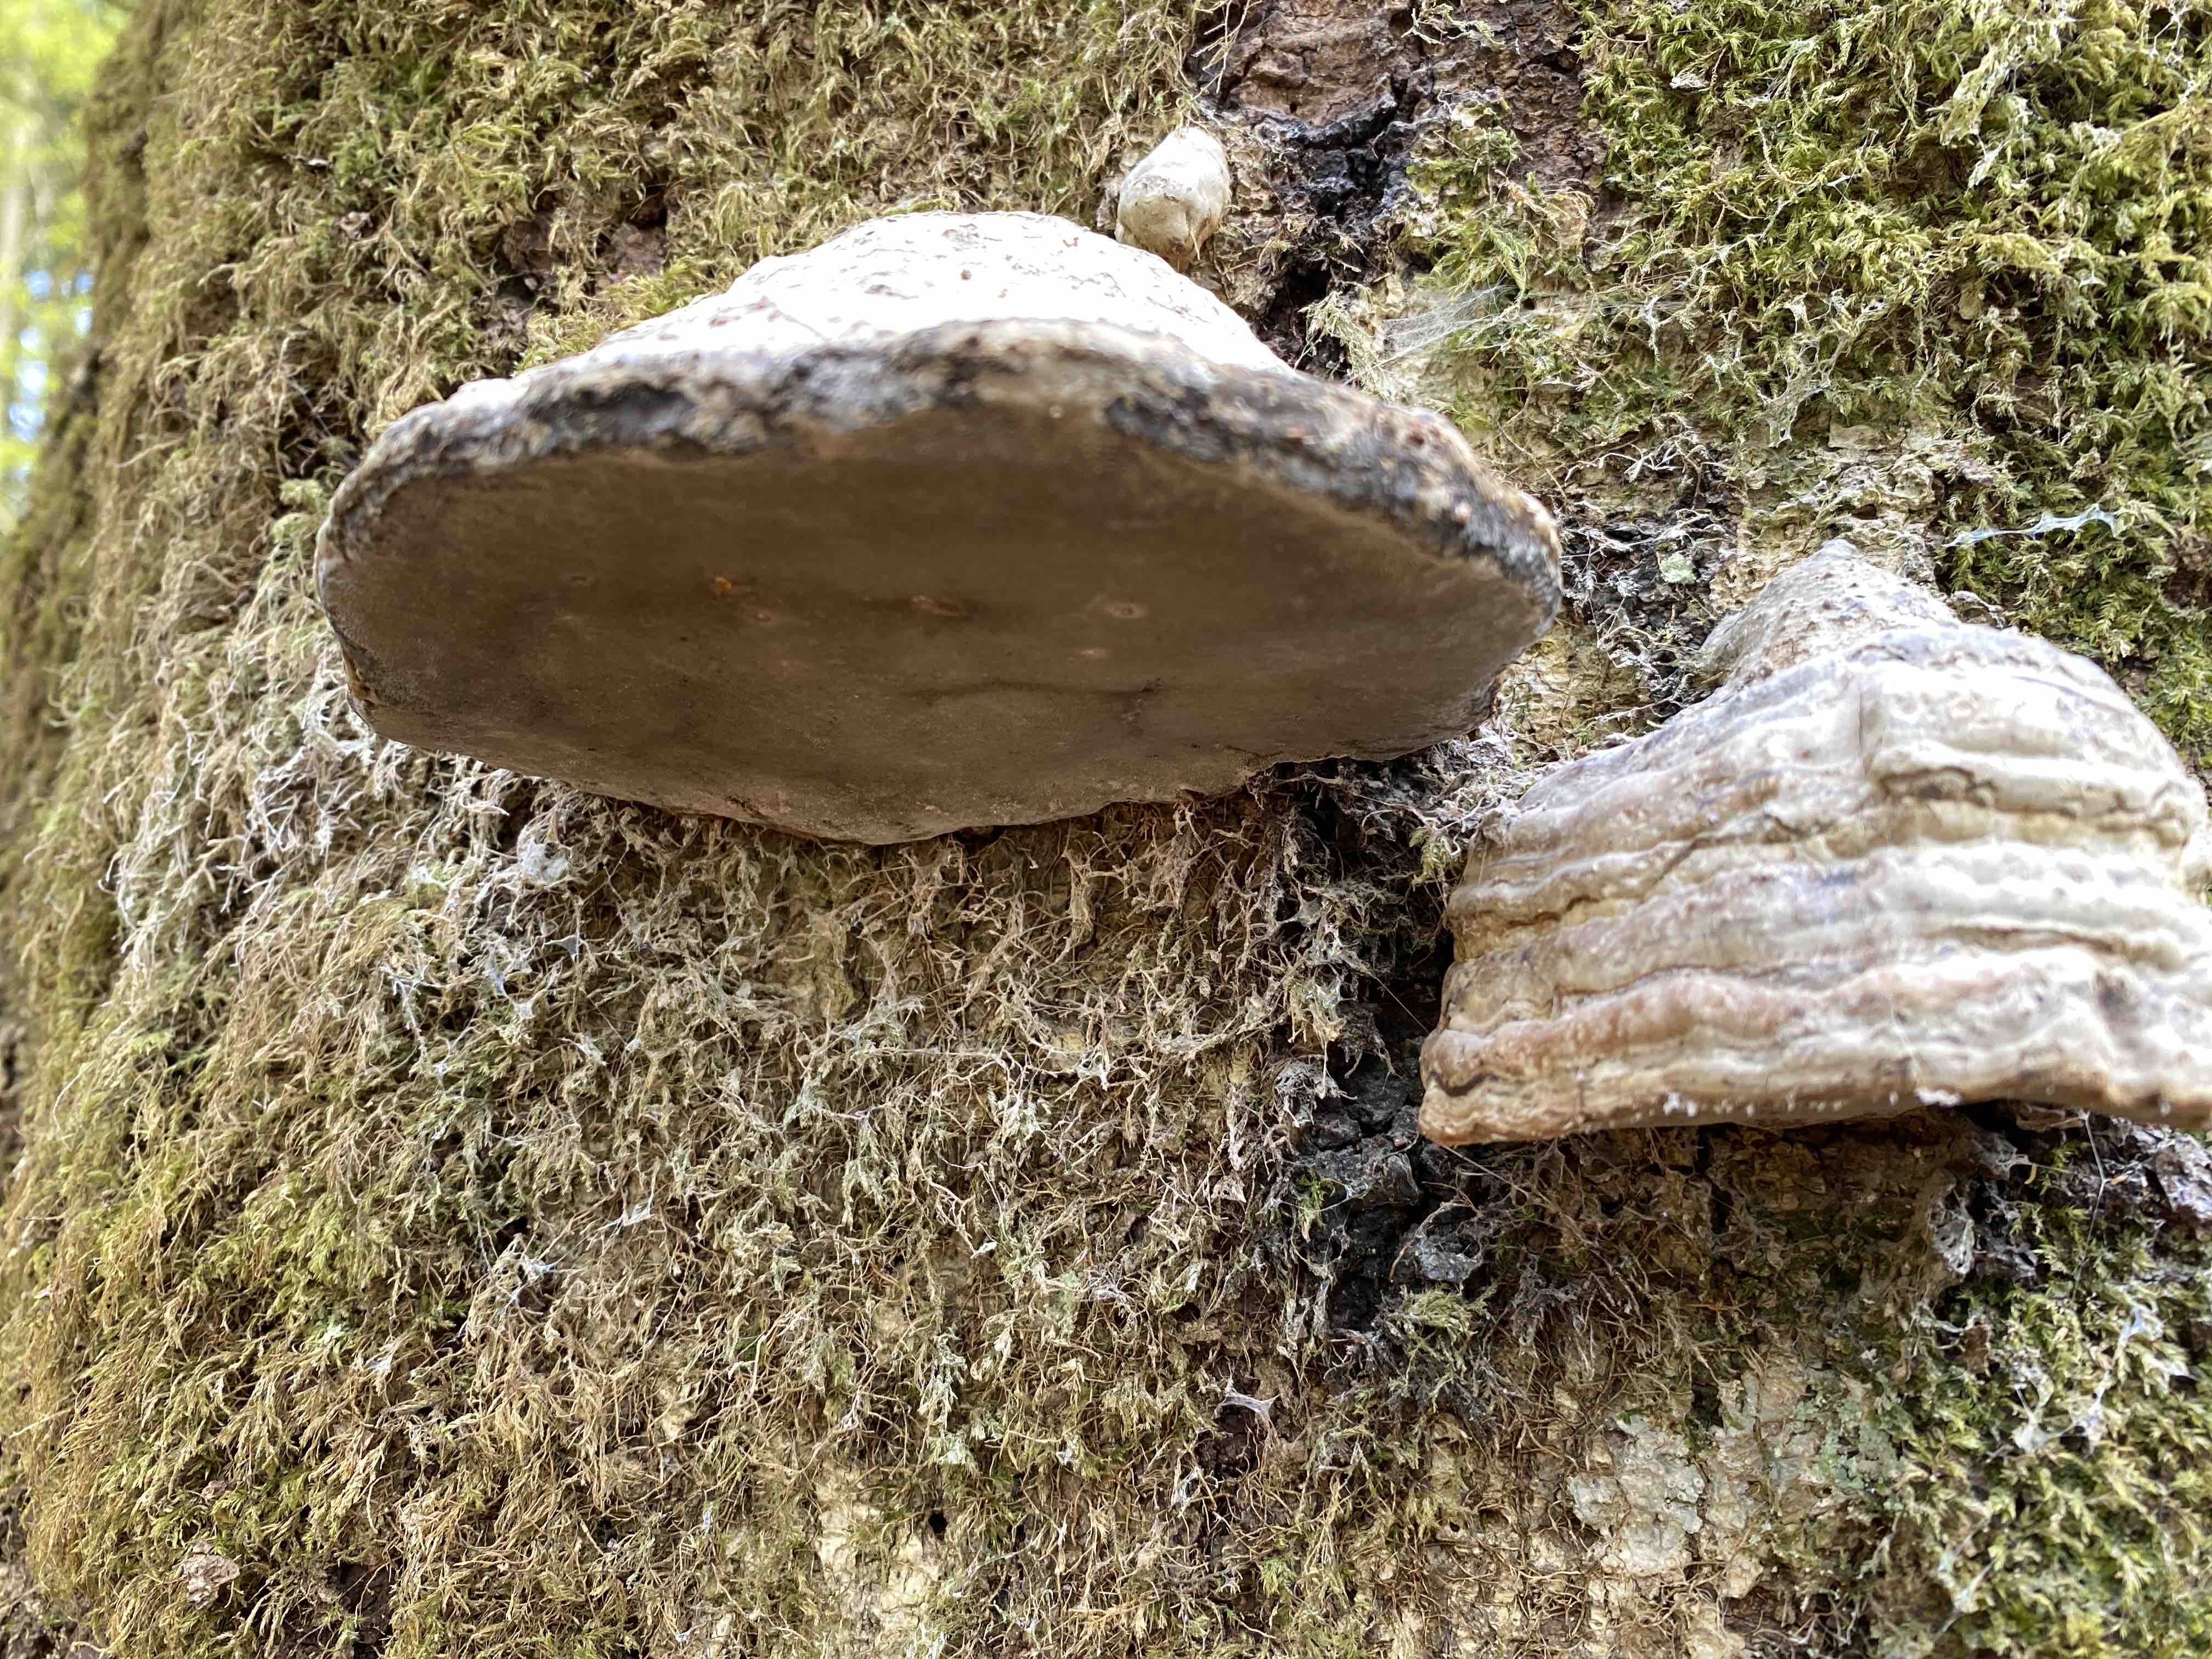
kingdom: Fungi
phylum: Basidiomycota
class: Agaricomycetes
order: Polyporales
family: Polyporaceae
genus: Fomes
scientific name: Fomes fomentarius
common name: tøndersvamp
